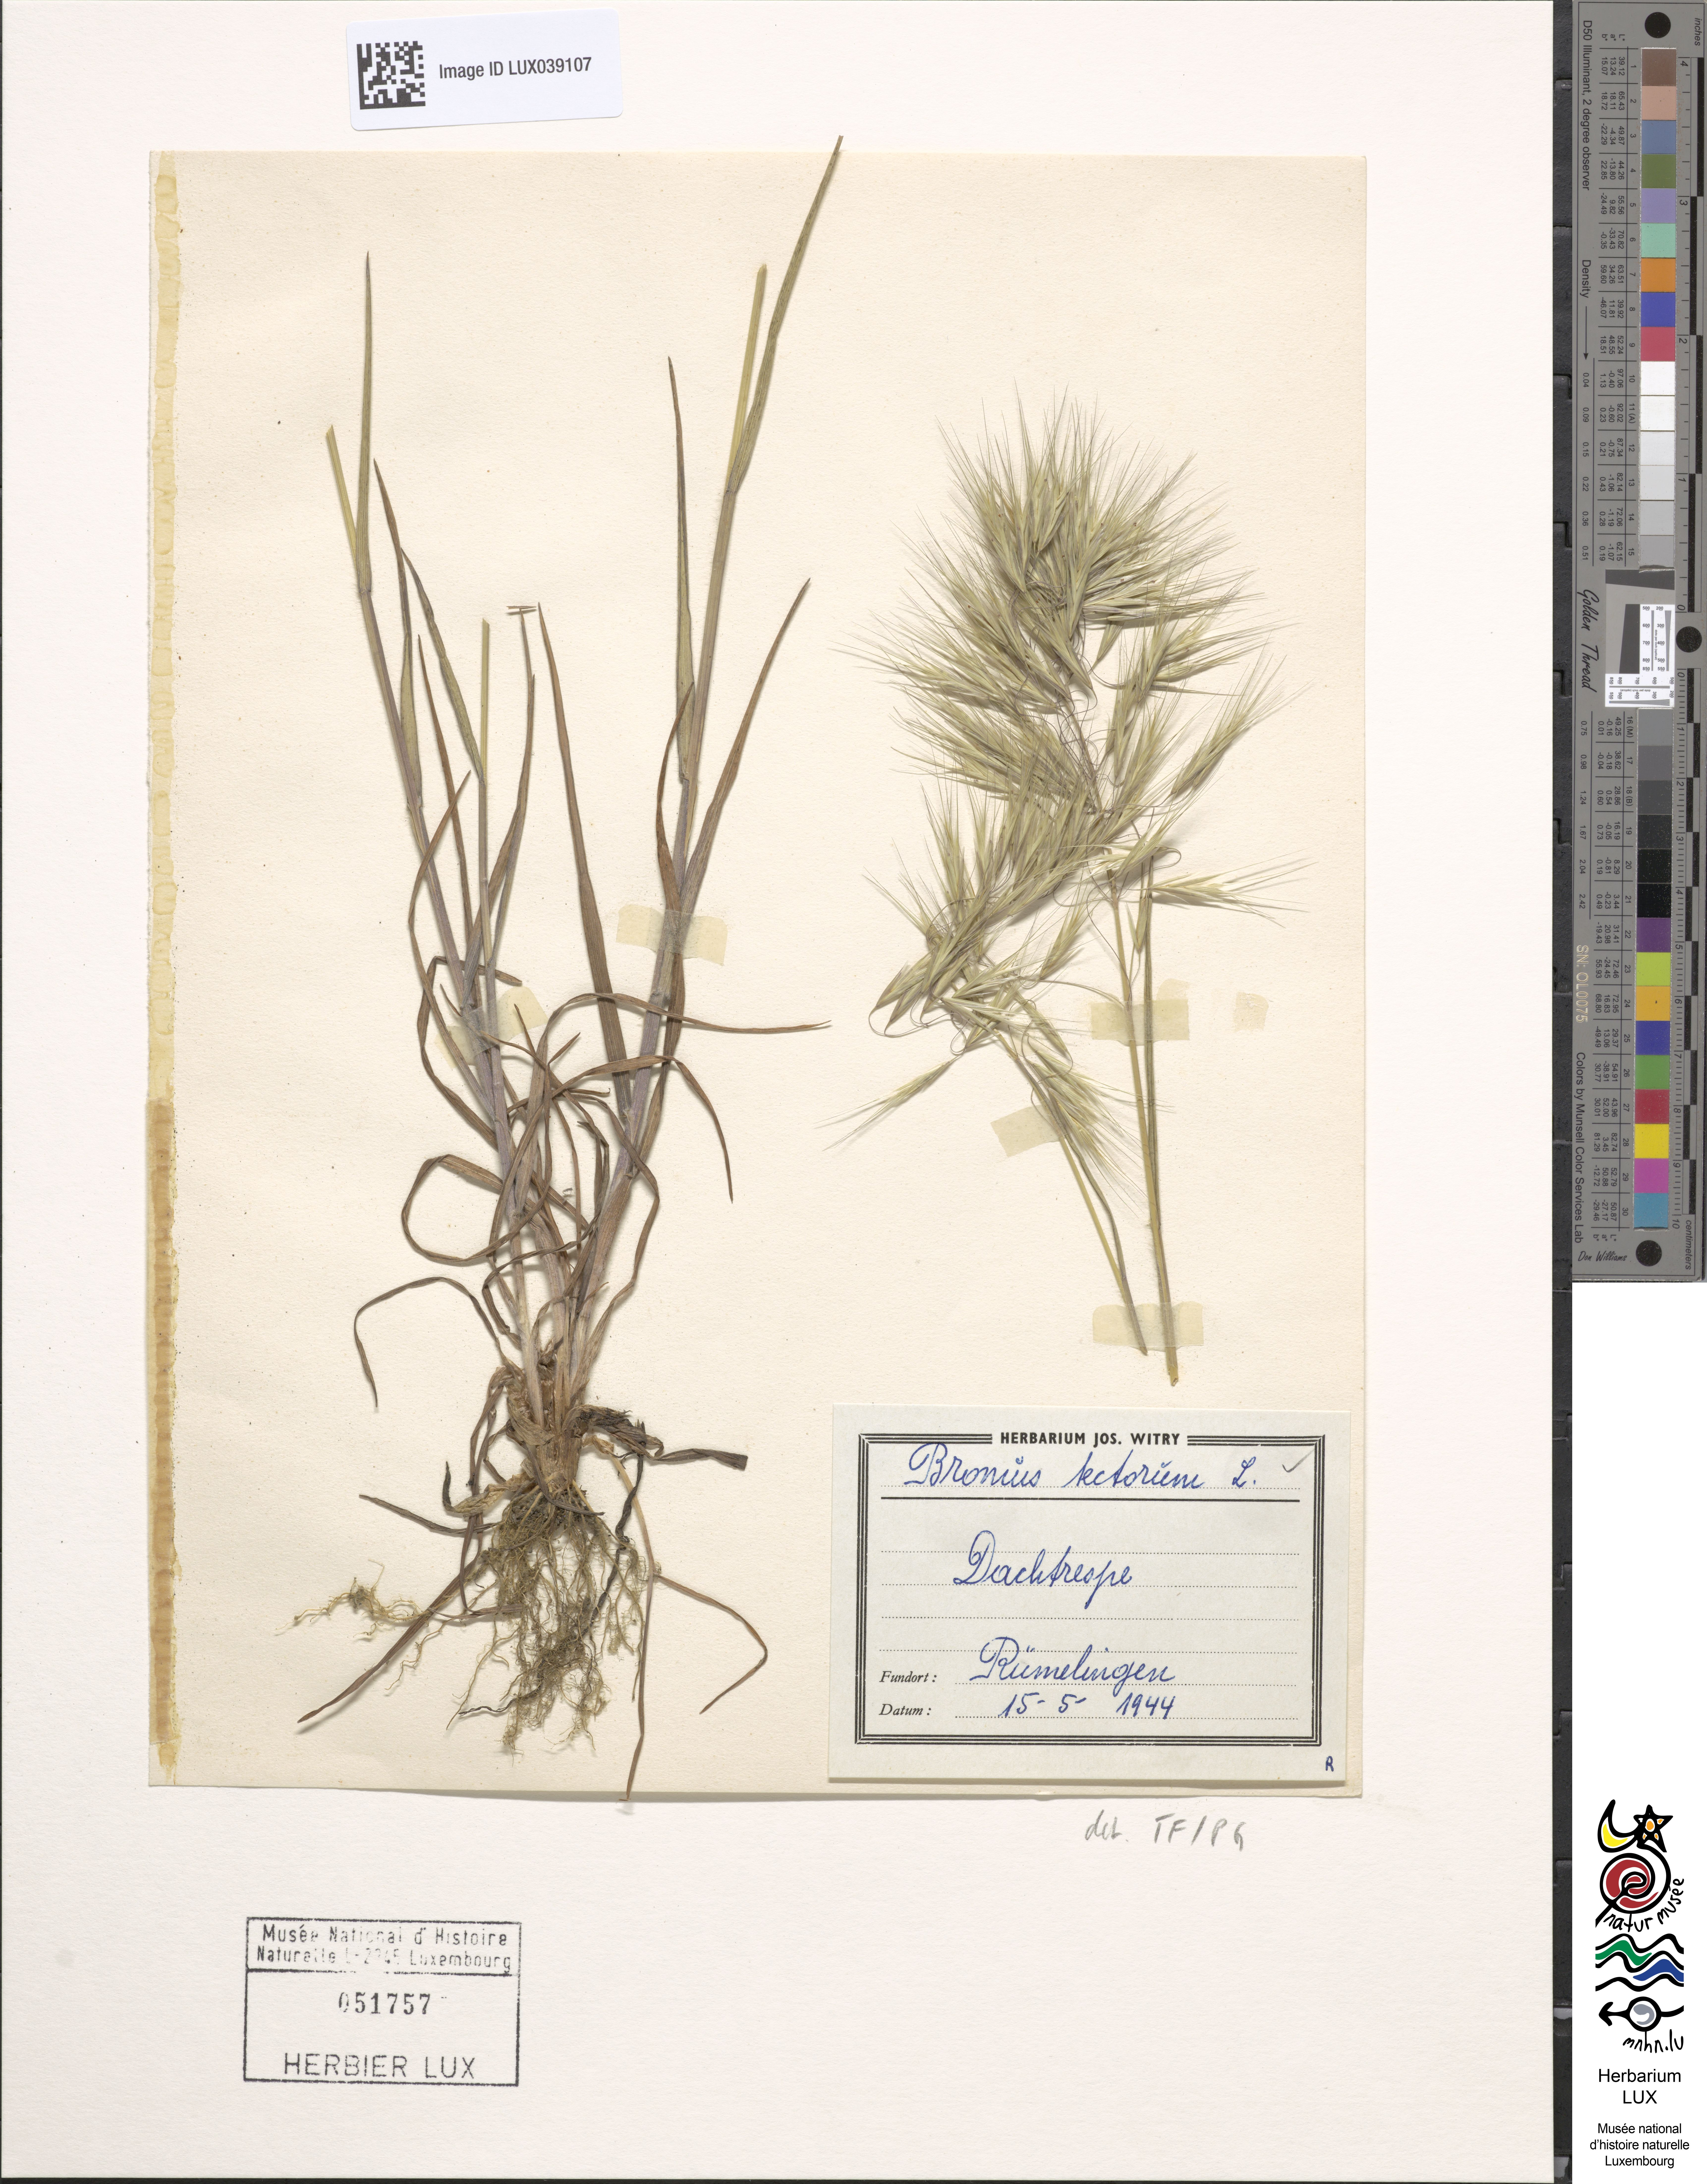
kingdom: Plantae
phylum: Tracheophyta
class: Liliopsida
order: Poales
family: Poaceae
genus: Bromus
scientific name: Bromus tectorum
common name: Cheatgrass
